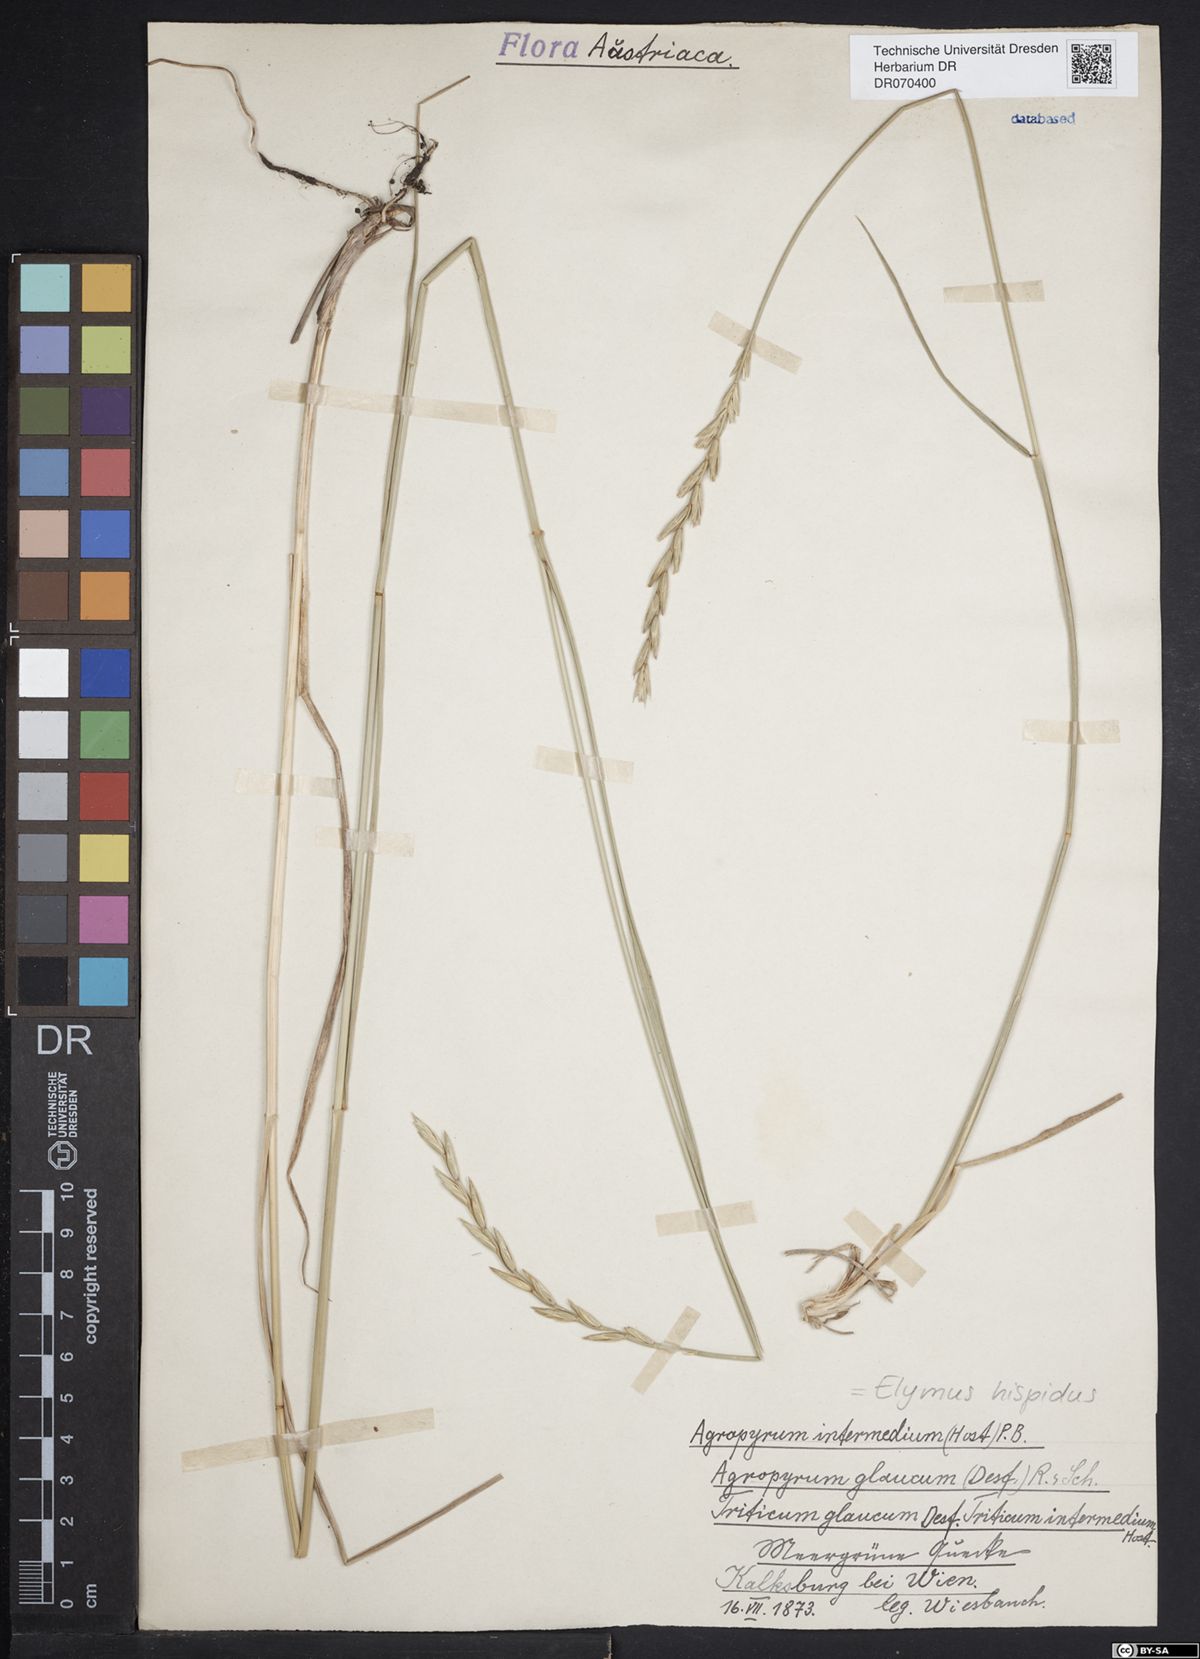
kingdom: Plantae
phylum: Tracheophyta
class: Liliopsida
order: Poales
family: Poaceae
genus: Thinopyrum
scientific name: Thinopyrum intermedium
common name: Intermediate wheatgrass
